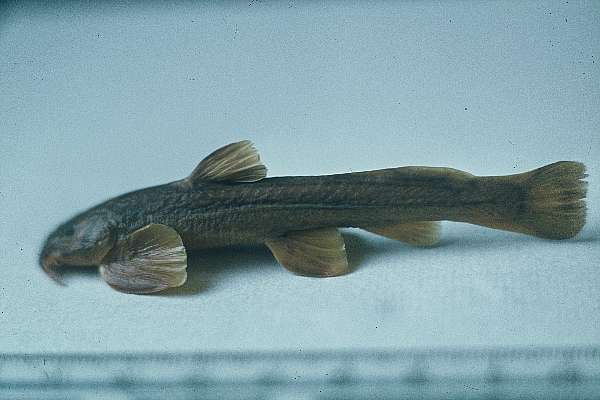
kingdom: Animalia
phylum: Chordata
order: Siluriformes
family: Amphiliidae
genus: Amphilius
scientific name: Amphilius lampei
